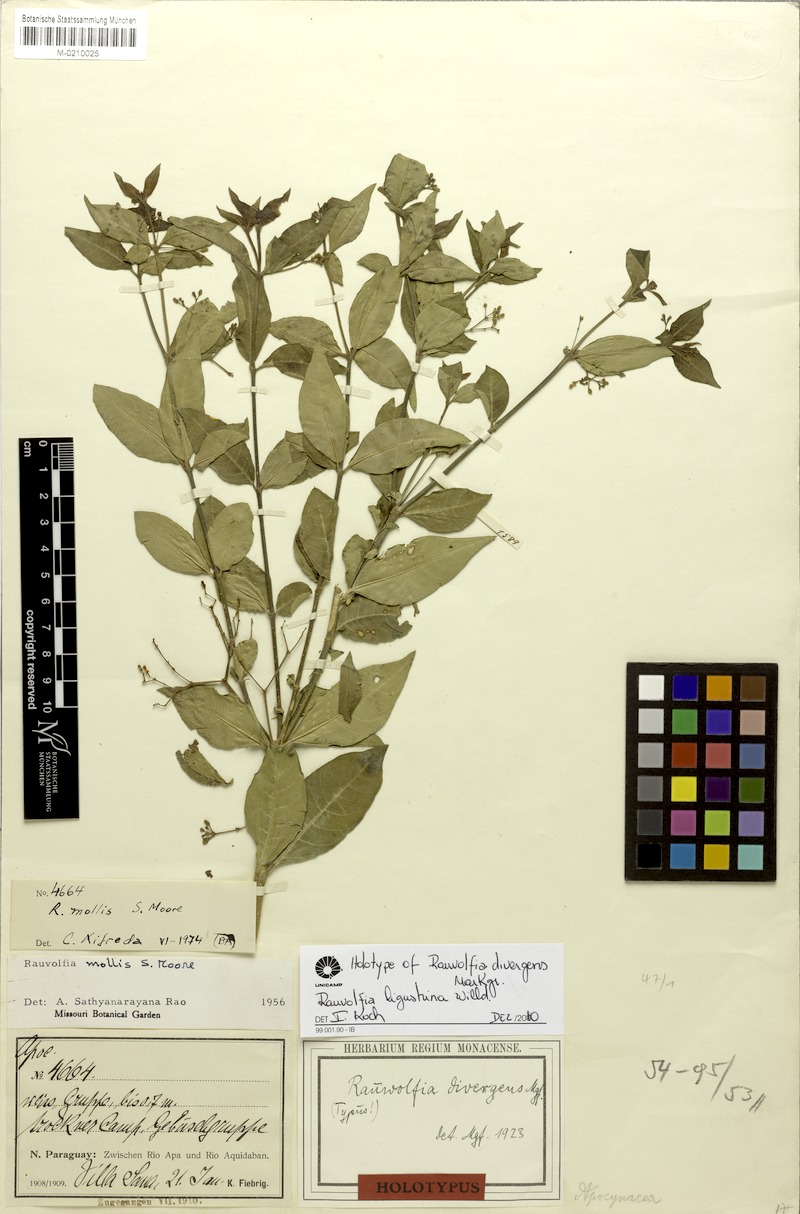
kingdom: Plantae
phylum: Tracheophyta
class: Magnoliopsida
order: Gentianales
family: Apocynaceae
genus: Rauvolfia
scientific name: Rauvolfia ligustrina
